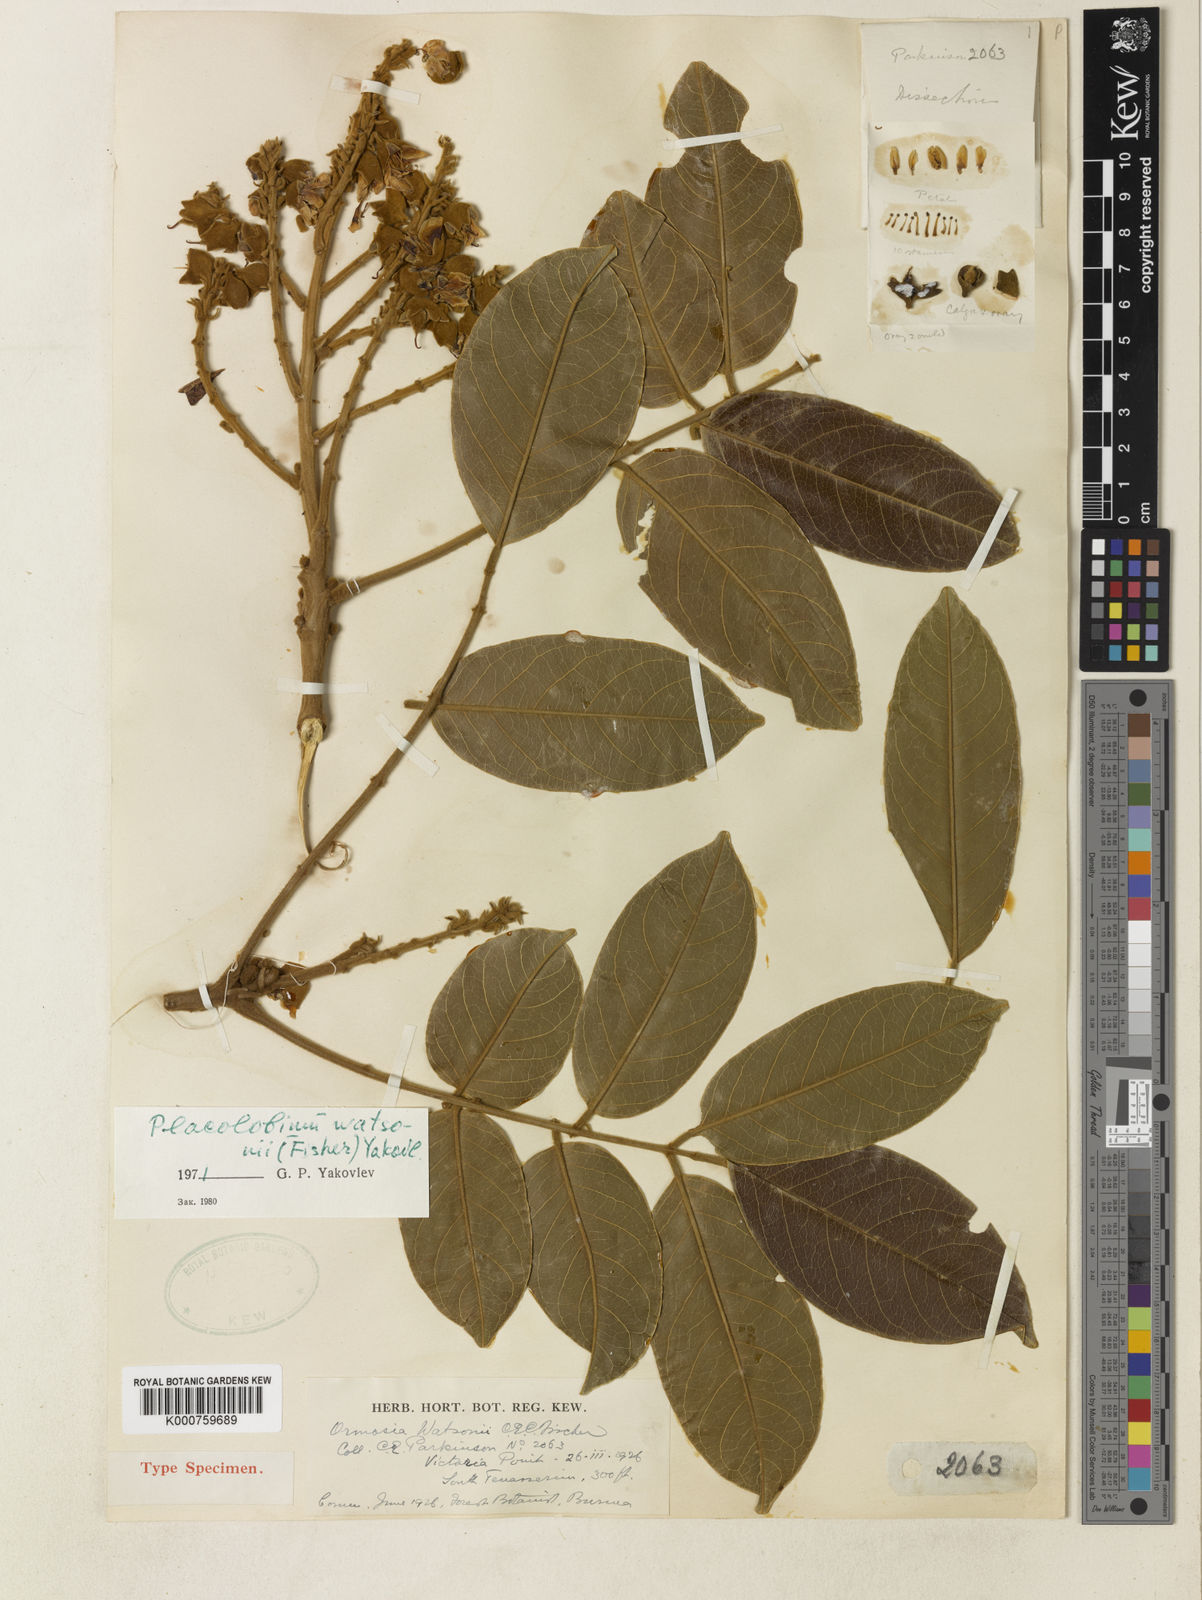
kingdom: Plantae
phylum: Tracheophyta
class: Magnoliopsida
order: Fabales
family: Fabaceae
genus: Ormosia
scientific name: Ormosia watsonii
